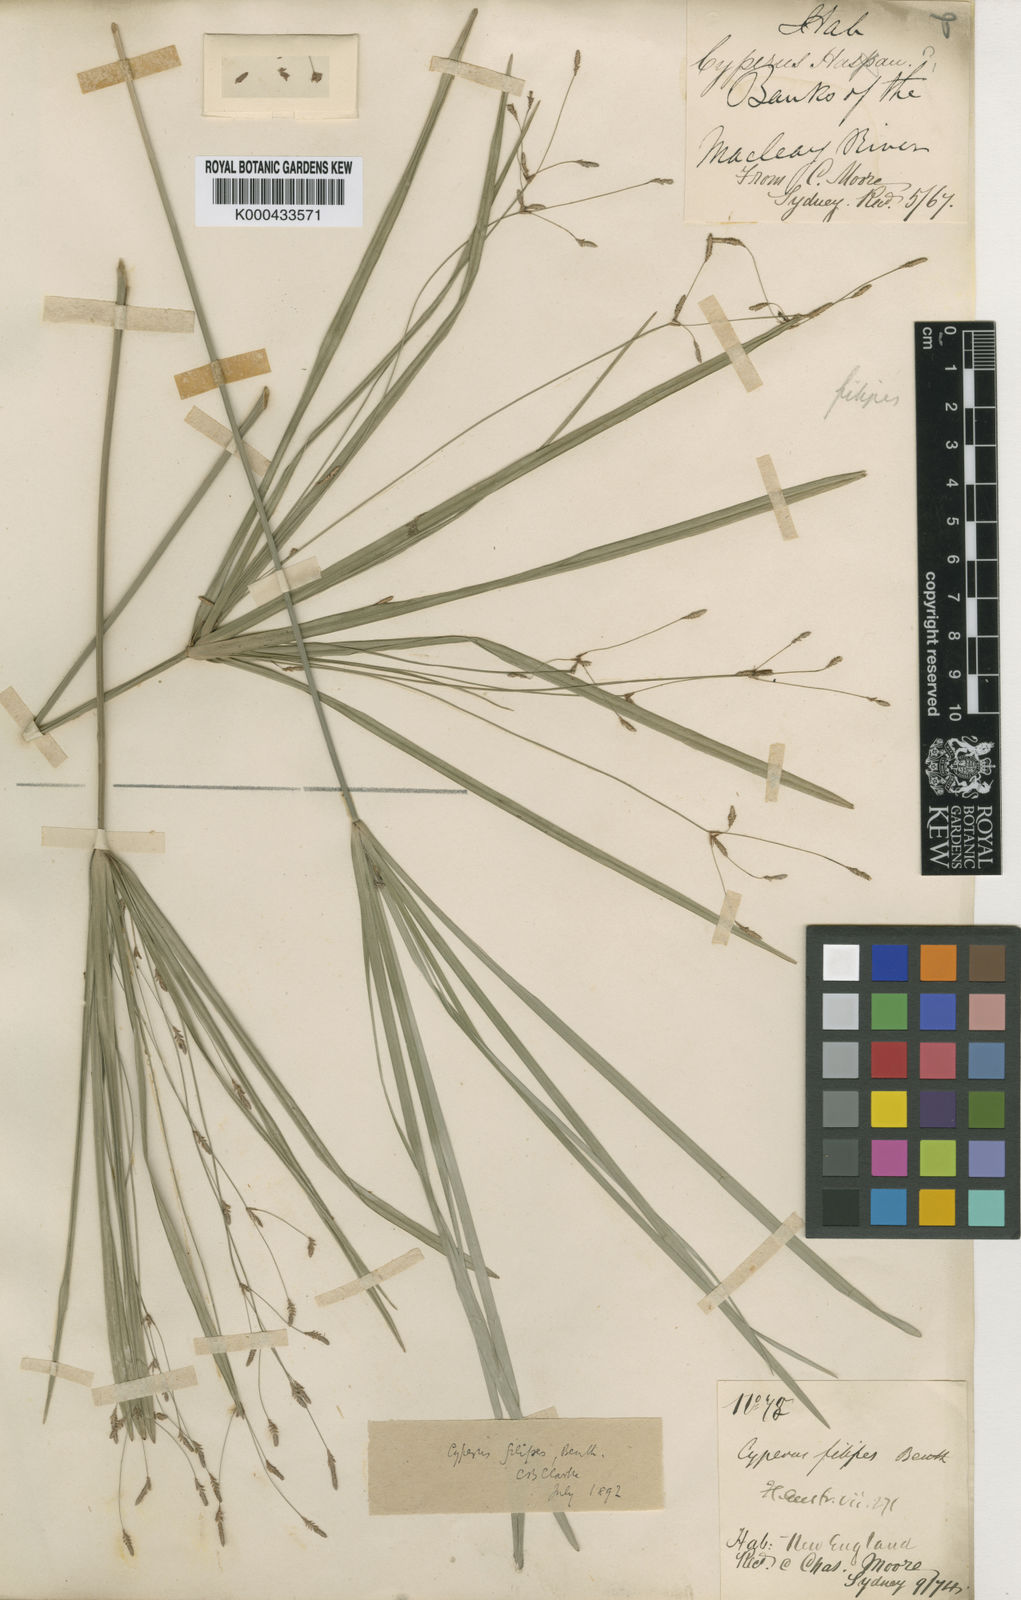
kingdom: Plantae
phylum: Tracheophyta
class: Liliopsida
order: Poales
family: Cyperaceae
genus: Cyperus
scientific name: Cyperus filipes
